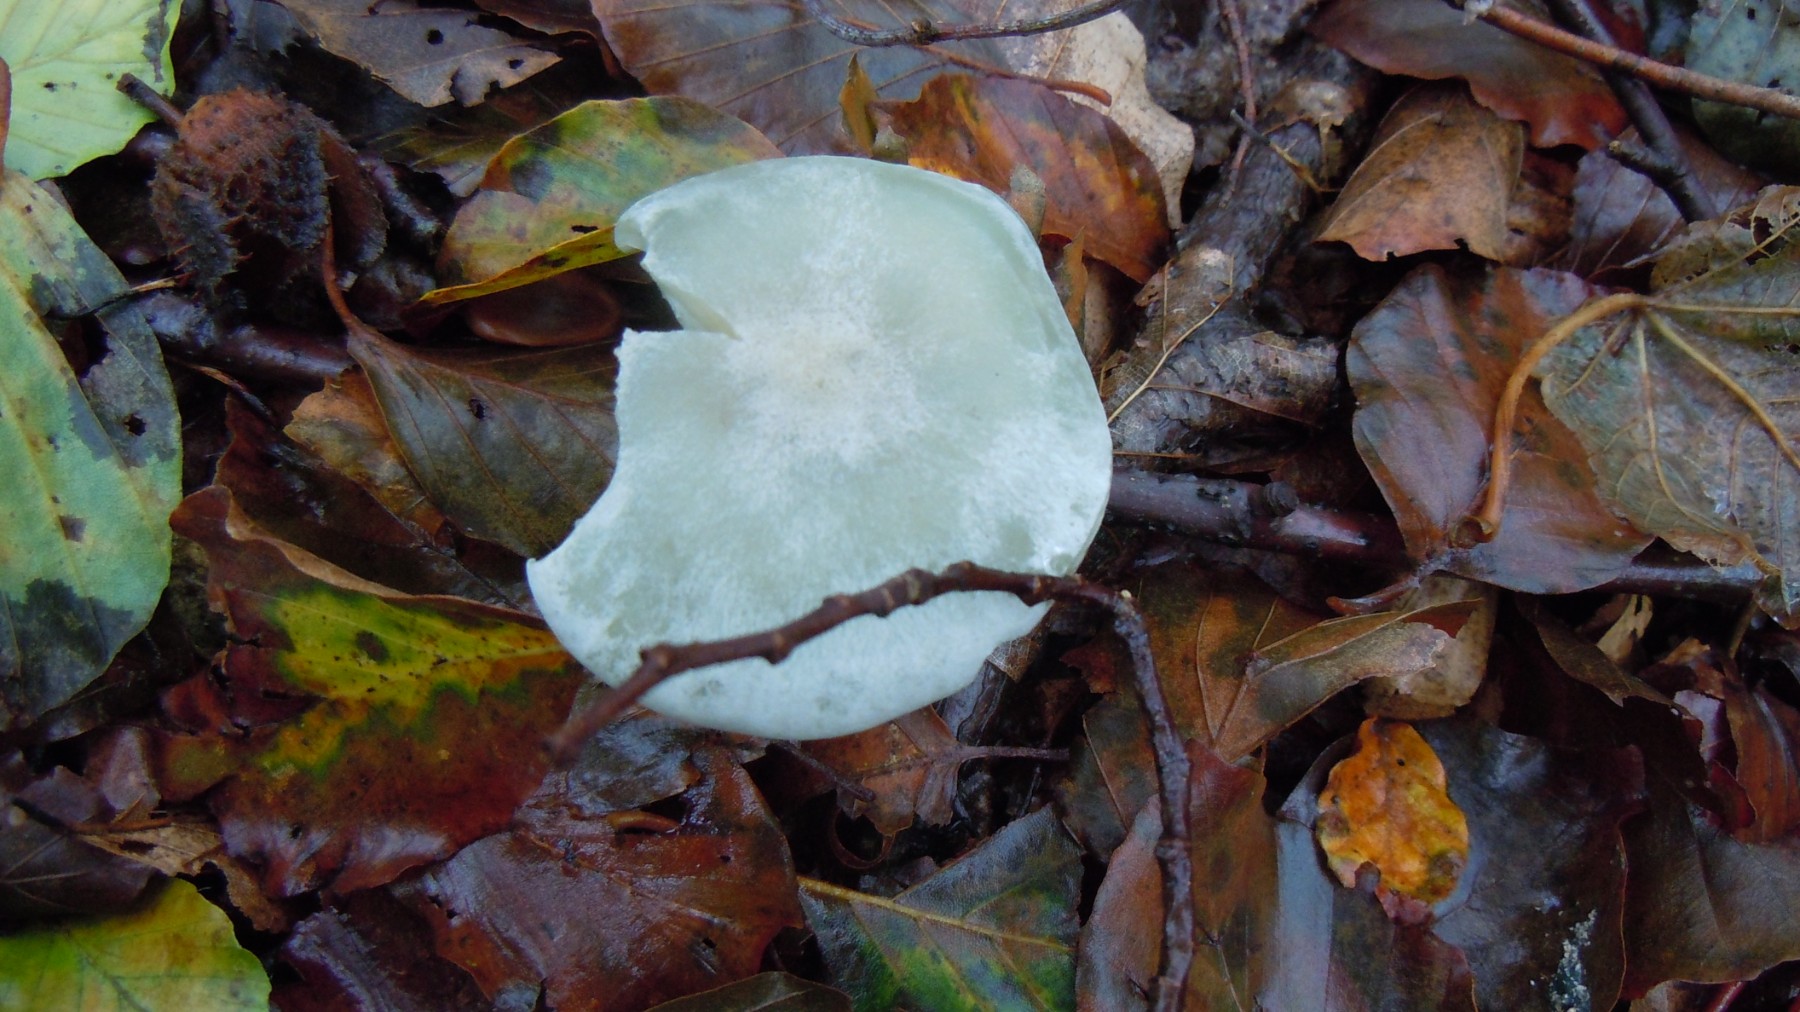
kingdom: Fungi
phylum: Basidiomycota
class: Agaricomycetes
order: Agaricales
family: Tricholomataceae
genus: Clitocybe
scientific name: Clitocybe odora
